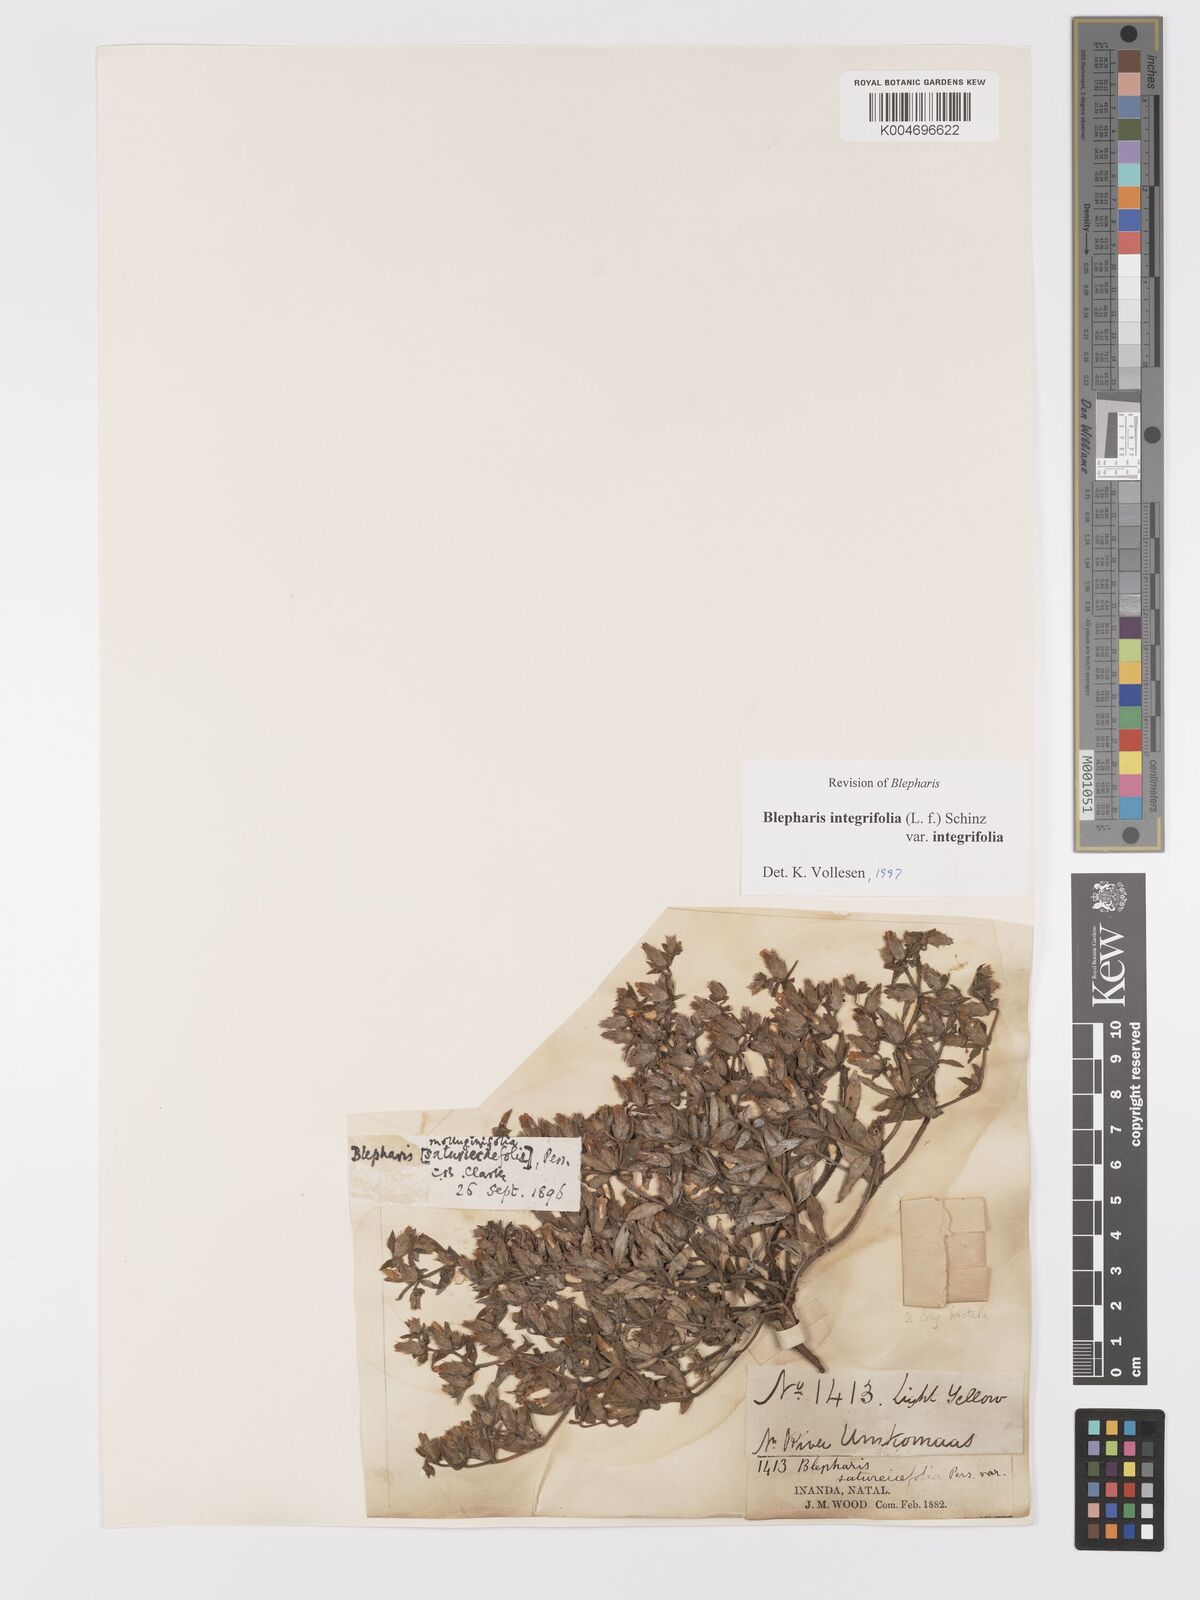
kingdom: Plantae
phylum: Tracheophyta
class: Magnoliopsida
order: Lamiales
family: Acanthaceae
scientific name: Acanthaceae
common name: Acanthaceae
